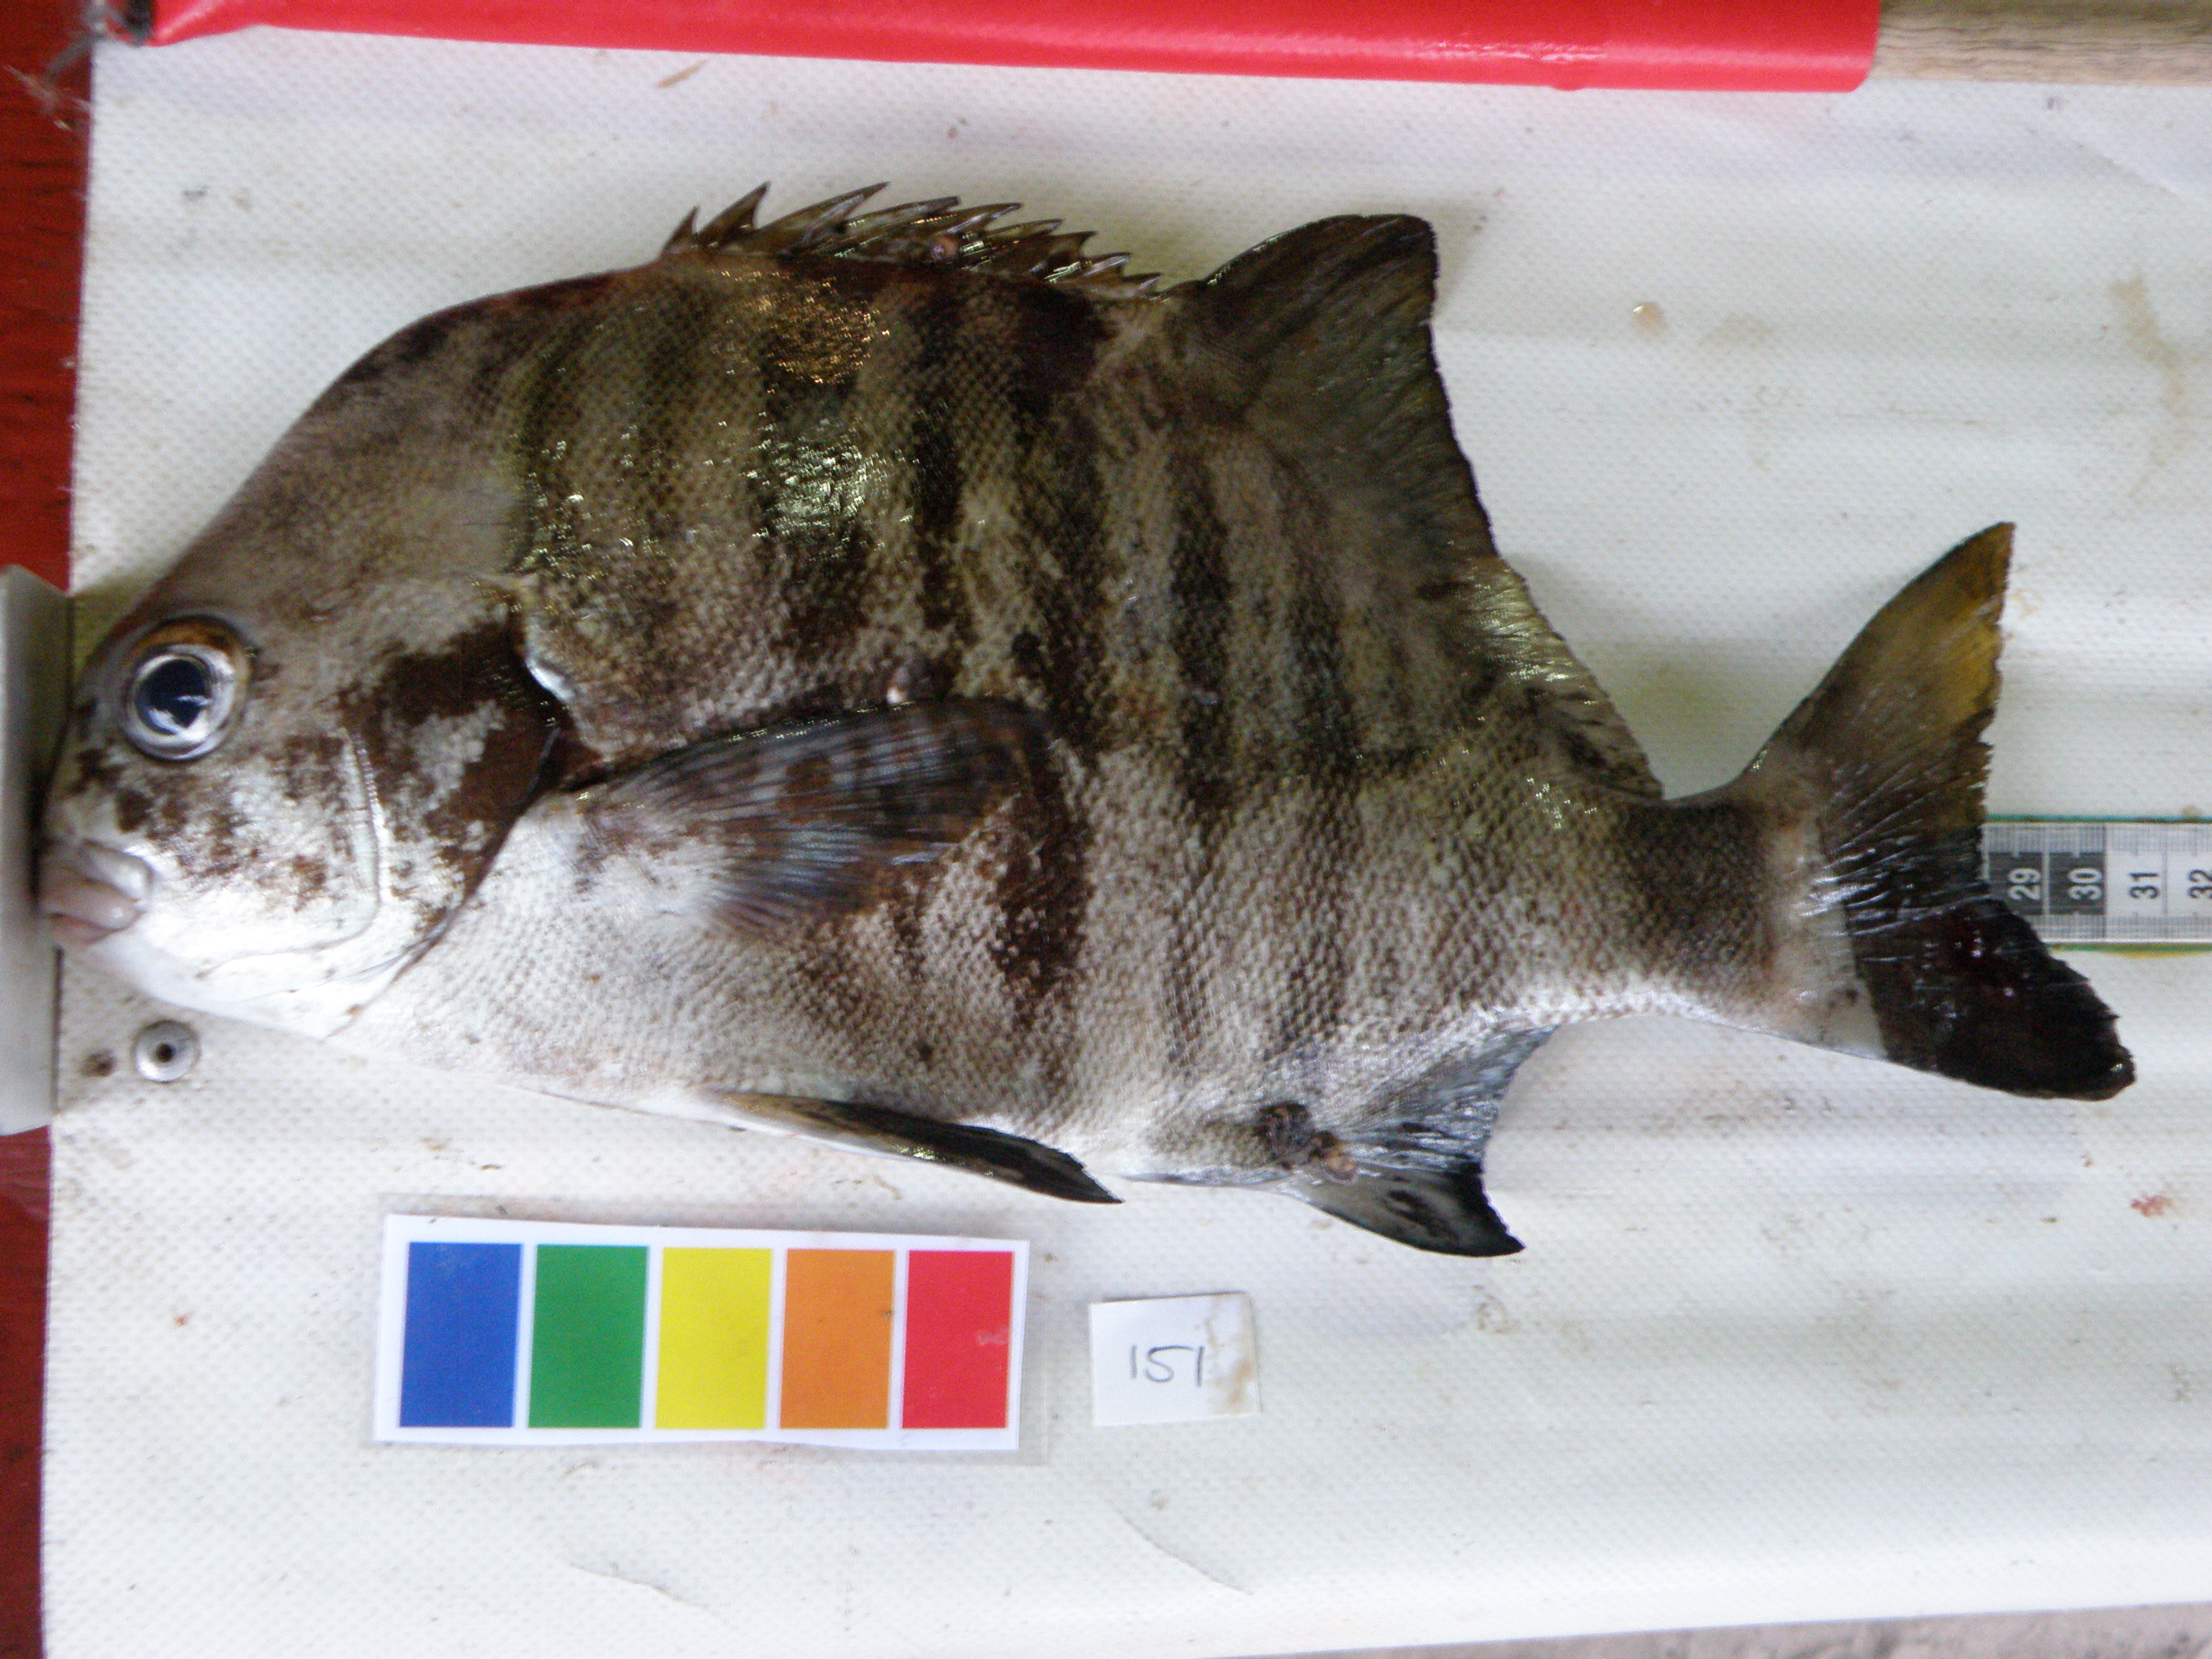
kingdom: Animalia
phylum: Chordata
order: Perciformes
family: Dichistiidae
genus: Dichistius
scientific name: Dichistius multifasciatus
